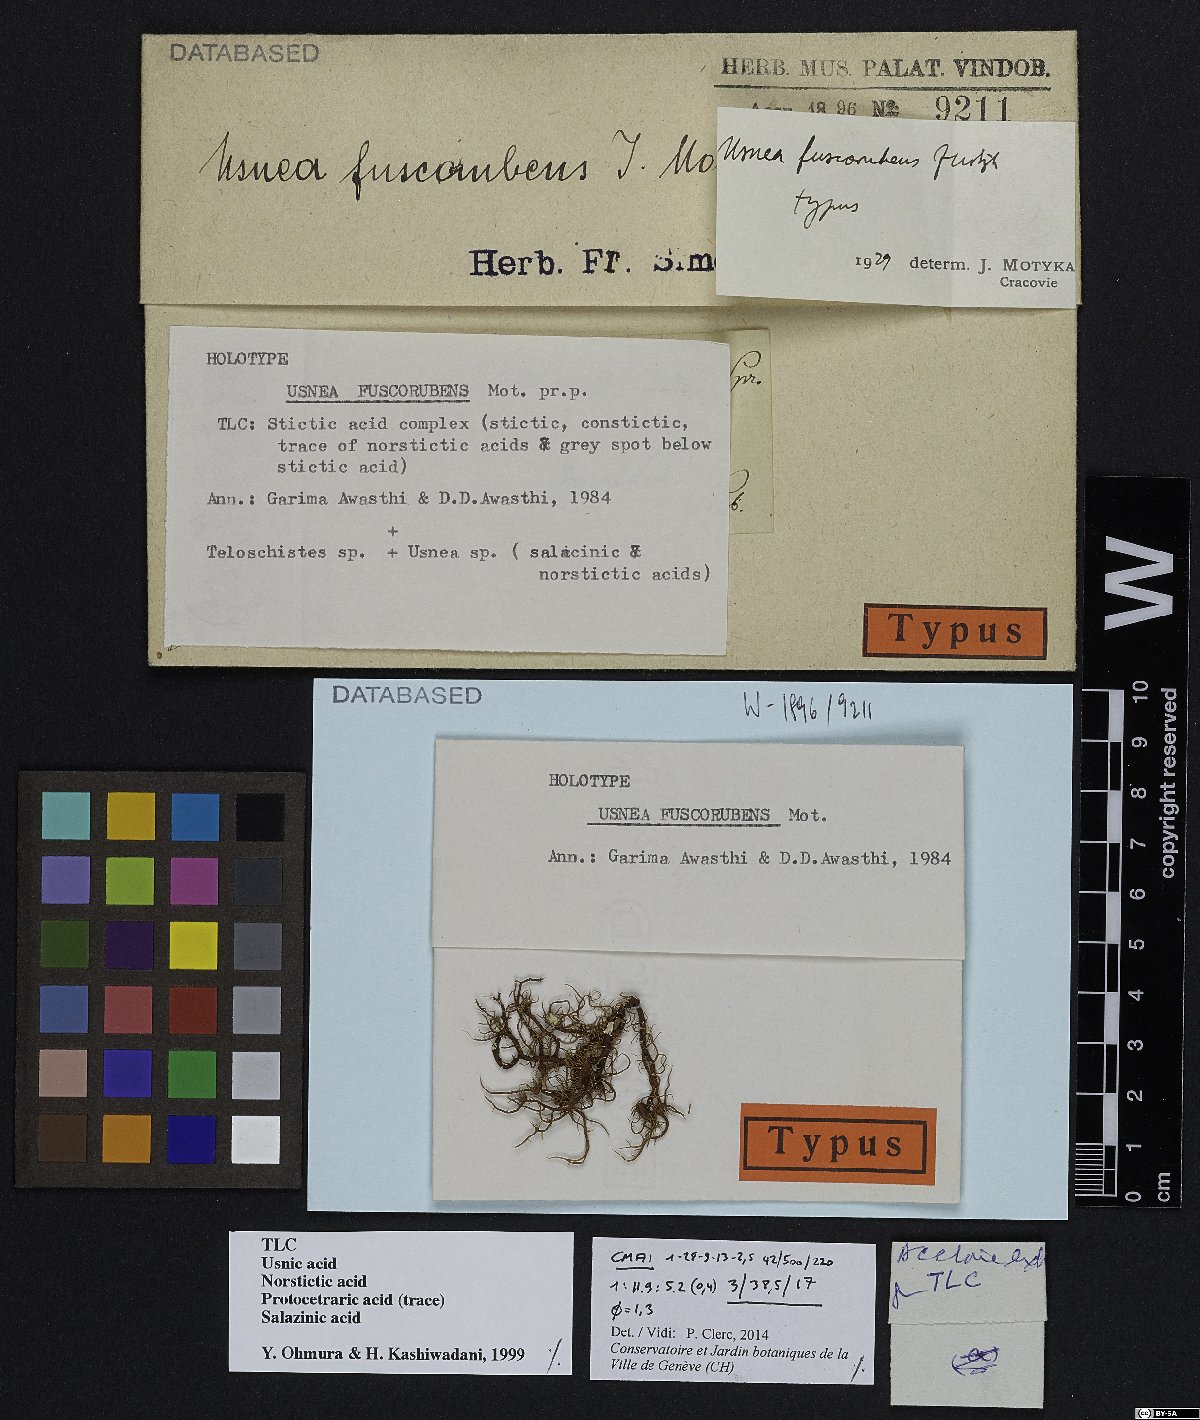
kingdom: Fungi
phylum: Ascomycota
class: Lecanoromycetes
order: Lecanorales
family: Parmeliaceae
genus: Usnea
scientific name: Usnea fuscorubens
